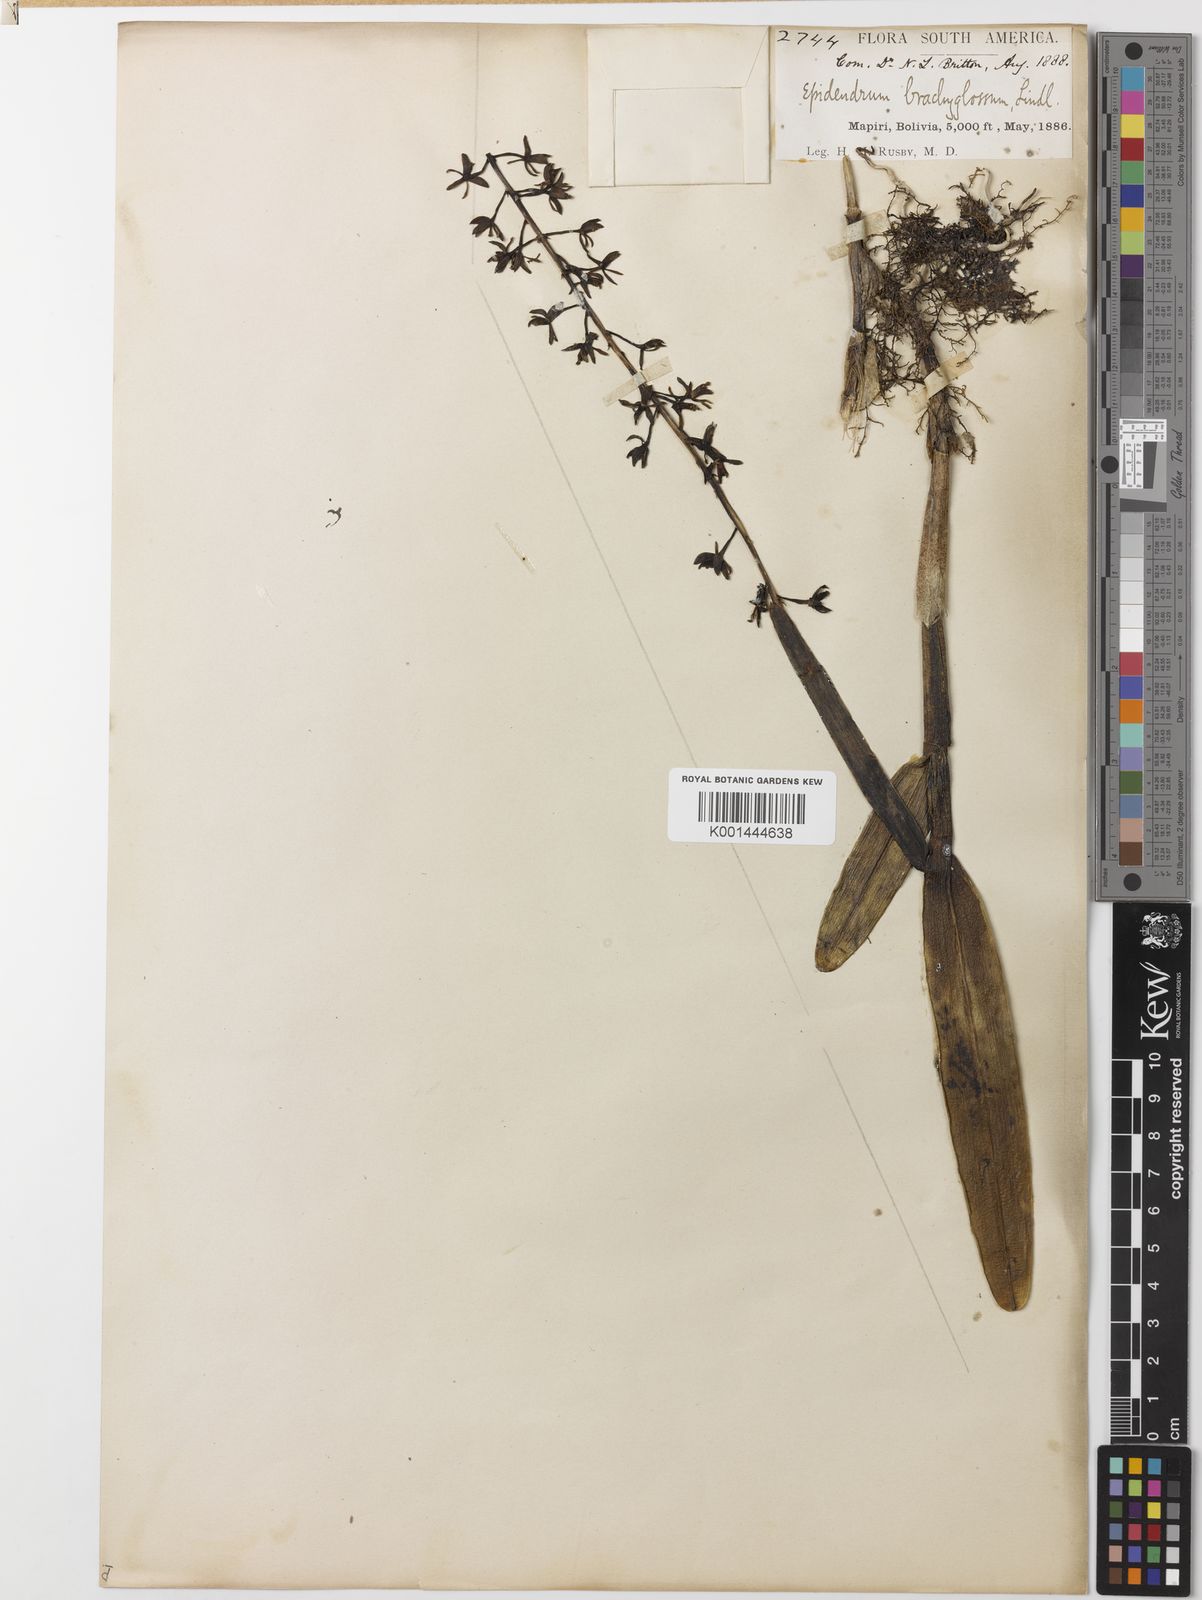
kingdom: Plantae
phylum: Tracheophyta
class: Liliopsida
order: Asparagales
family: Orchidaceae
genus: Epidendrum
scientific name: Epidendrum brachyglossum
